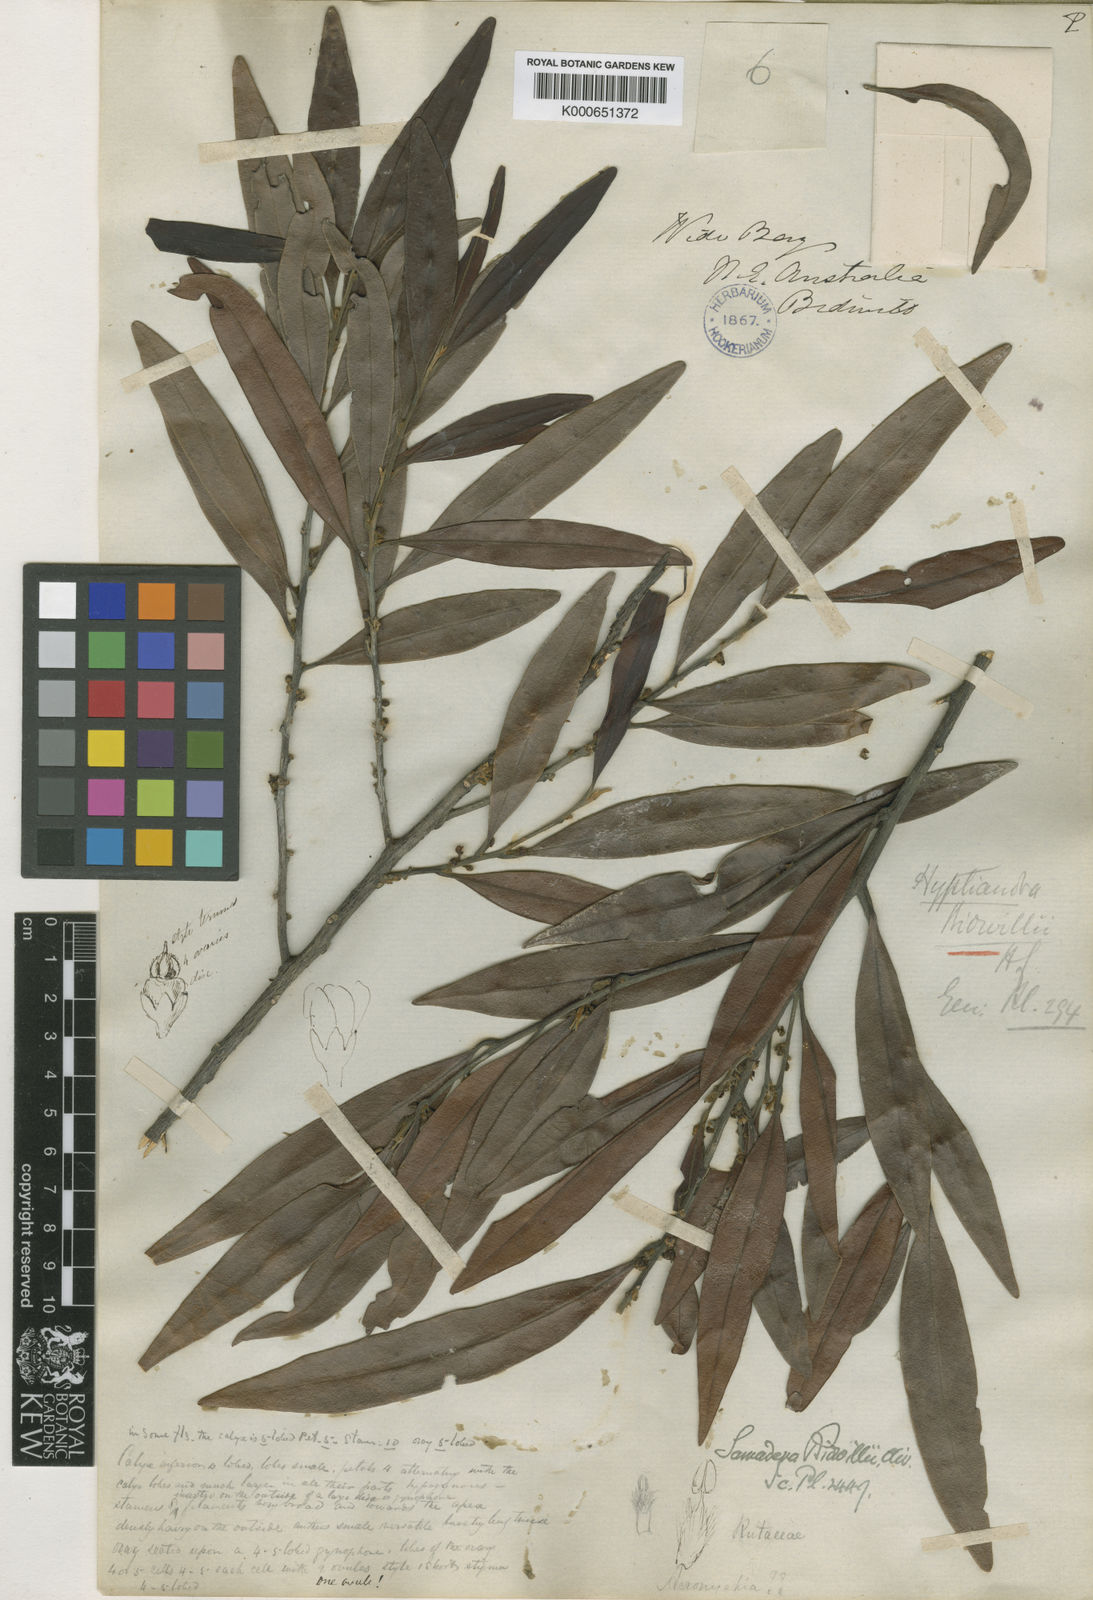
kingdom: Plantae
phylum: Tracheophyta
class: Magnoliopsida
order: Sapindales
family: Simaroubaceae
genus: Samadera
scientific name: Samadera bidwillii
